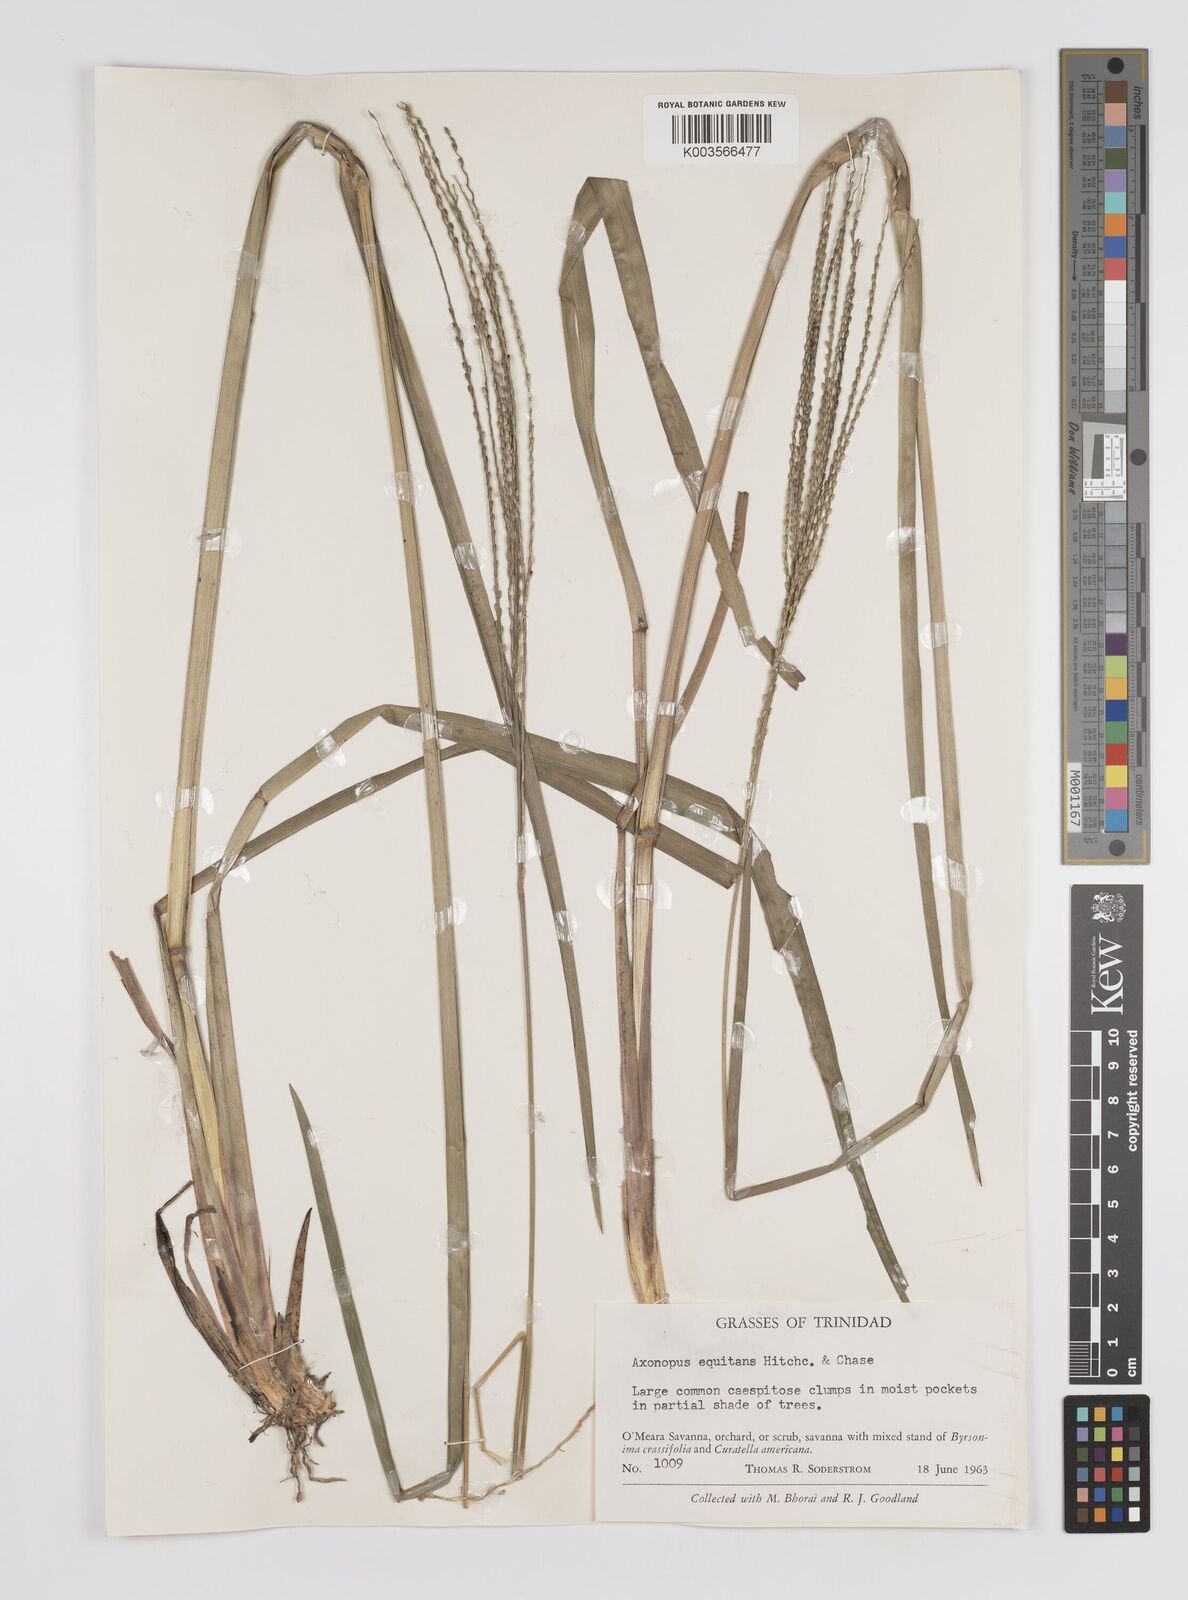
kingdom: Plantae
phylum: Tracheophyta
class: Liliopsida
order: Poales
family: Poaceae
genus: Axonopus
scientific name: Axonopus equitans
